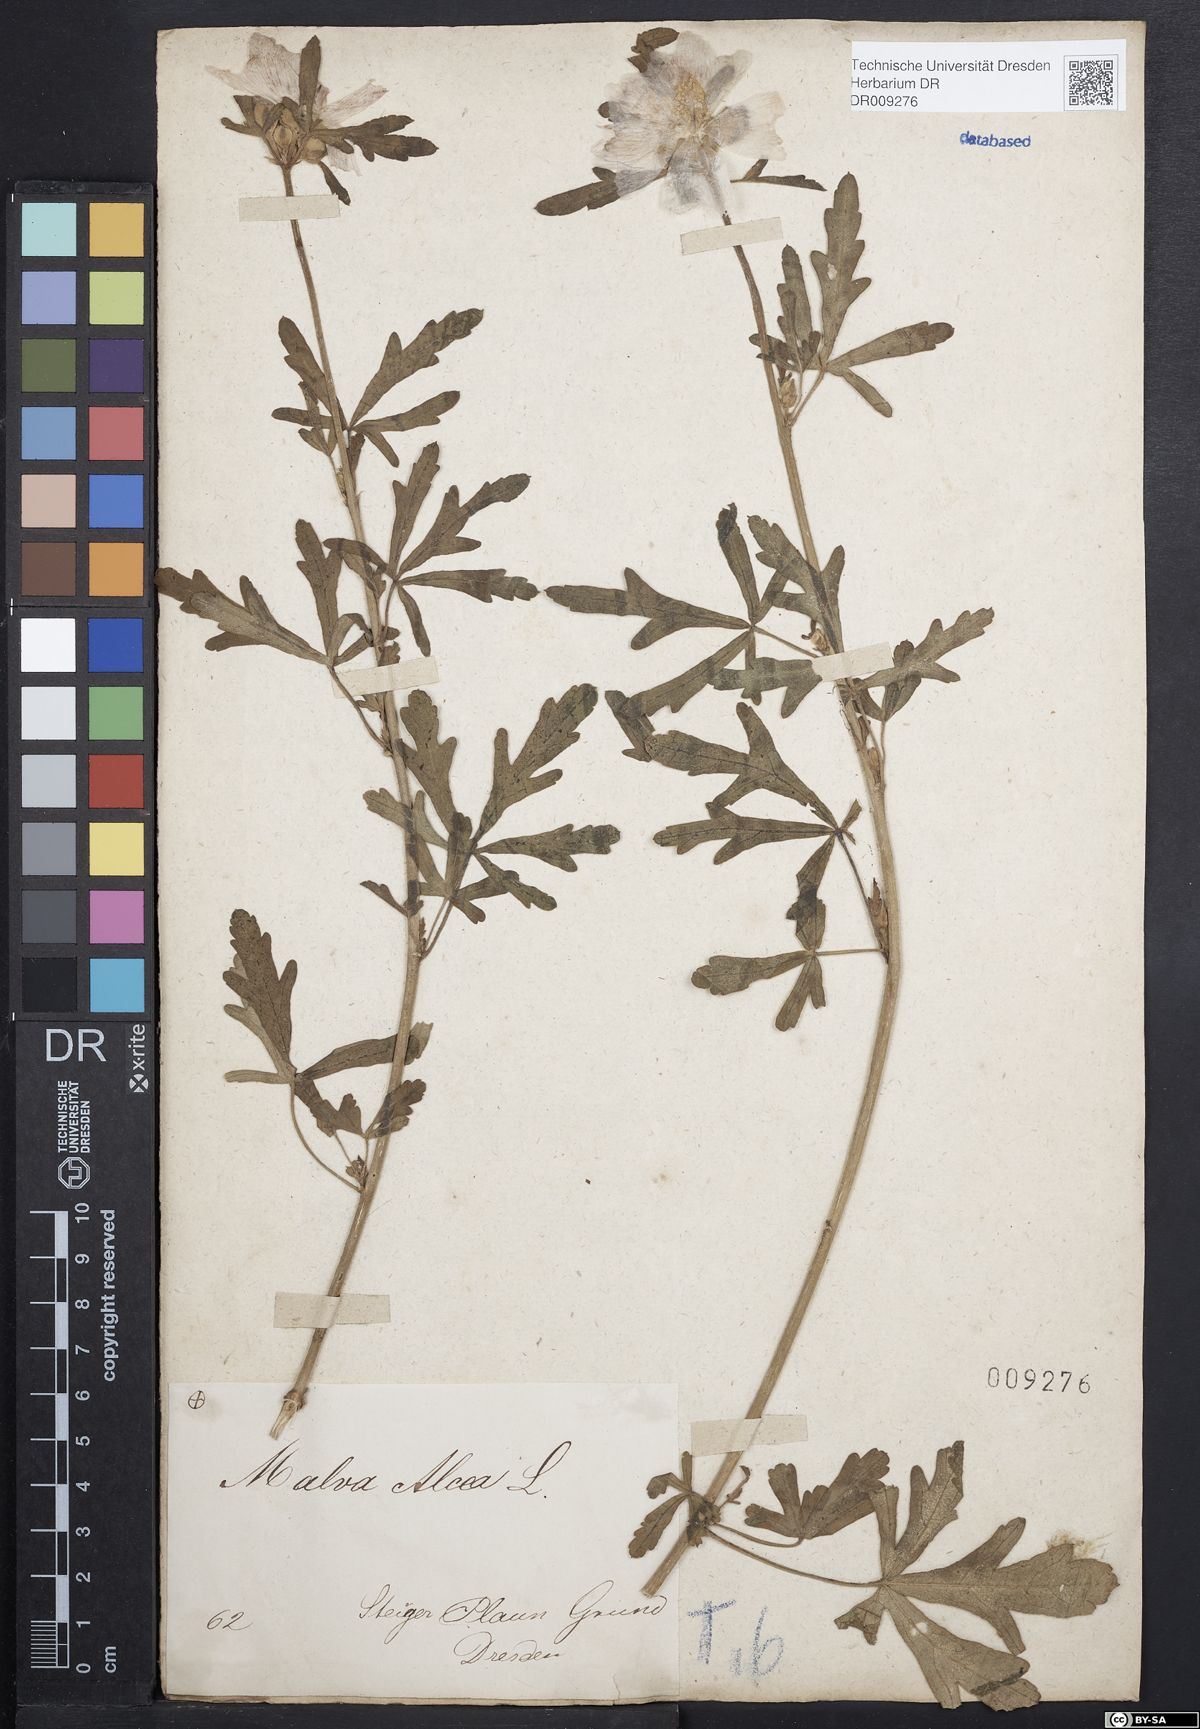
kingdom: Plantae
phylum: Tracheophyta
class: Magnoliopsida
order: Malvales
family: Malvaceae
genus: Malva
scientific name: Malva alcea
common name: Greater musk-mallow
